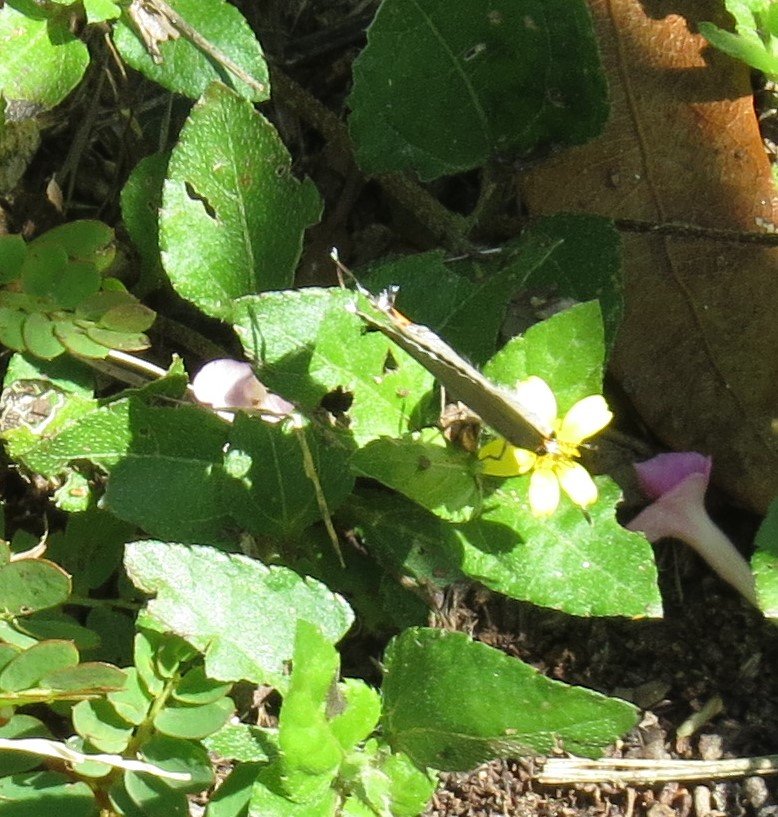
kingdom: Animalia
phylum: Arthropoda
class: Insecta
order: Lepidoptera
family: Lycaenidae
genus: Strymon
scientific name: Strymon melinus
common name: Gray Hairstreak
